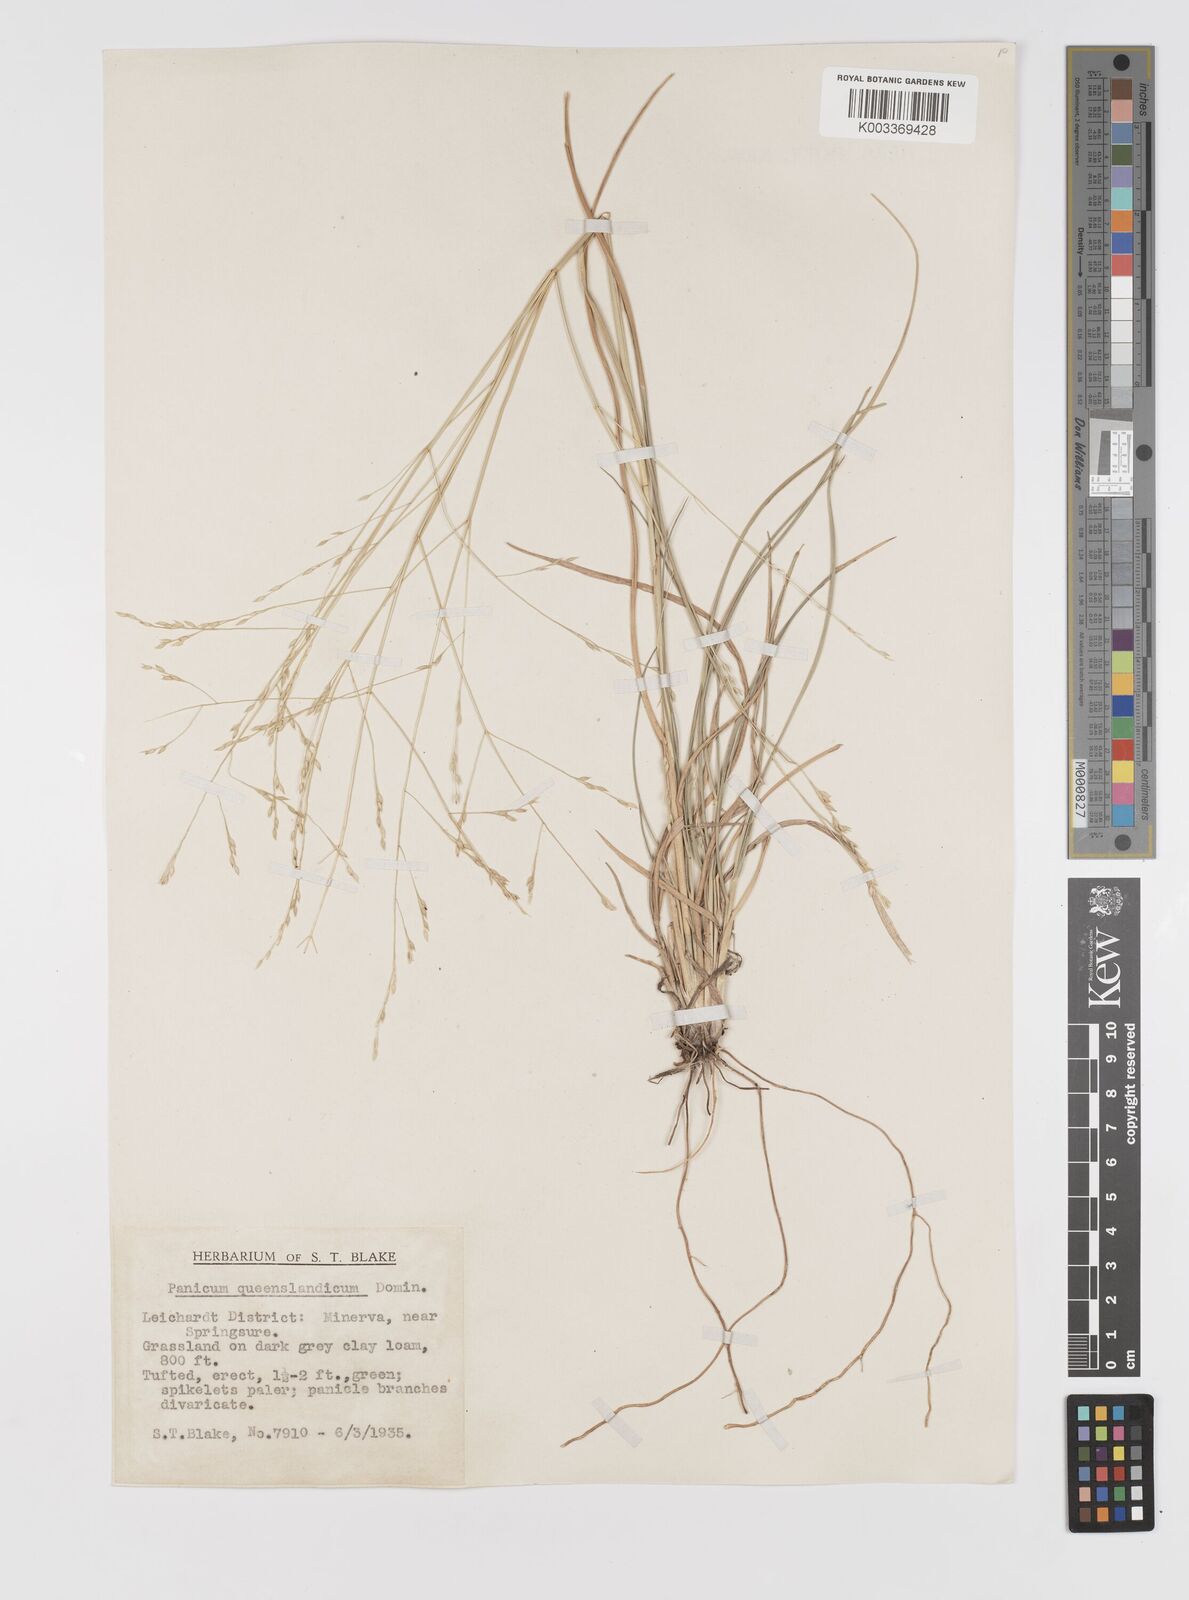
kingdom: Plantae
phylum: Tracheophyta
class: Liliopsida
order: Poales
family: Poaceae
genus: Panicum
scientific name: Panicum queenslandicum
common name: Yabila grass
